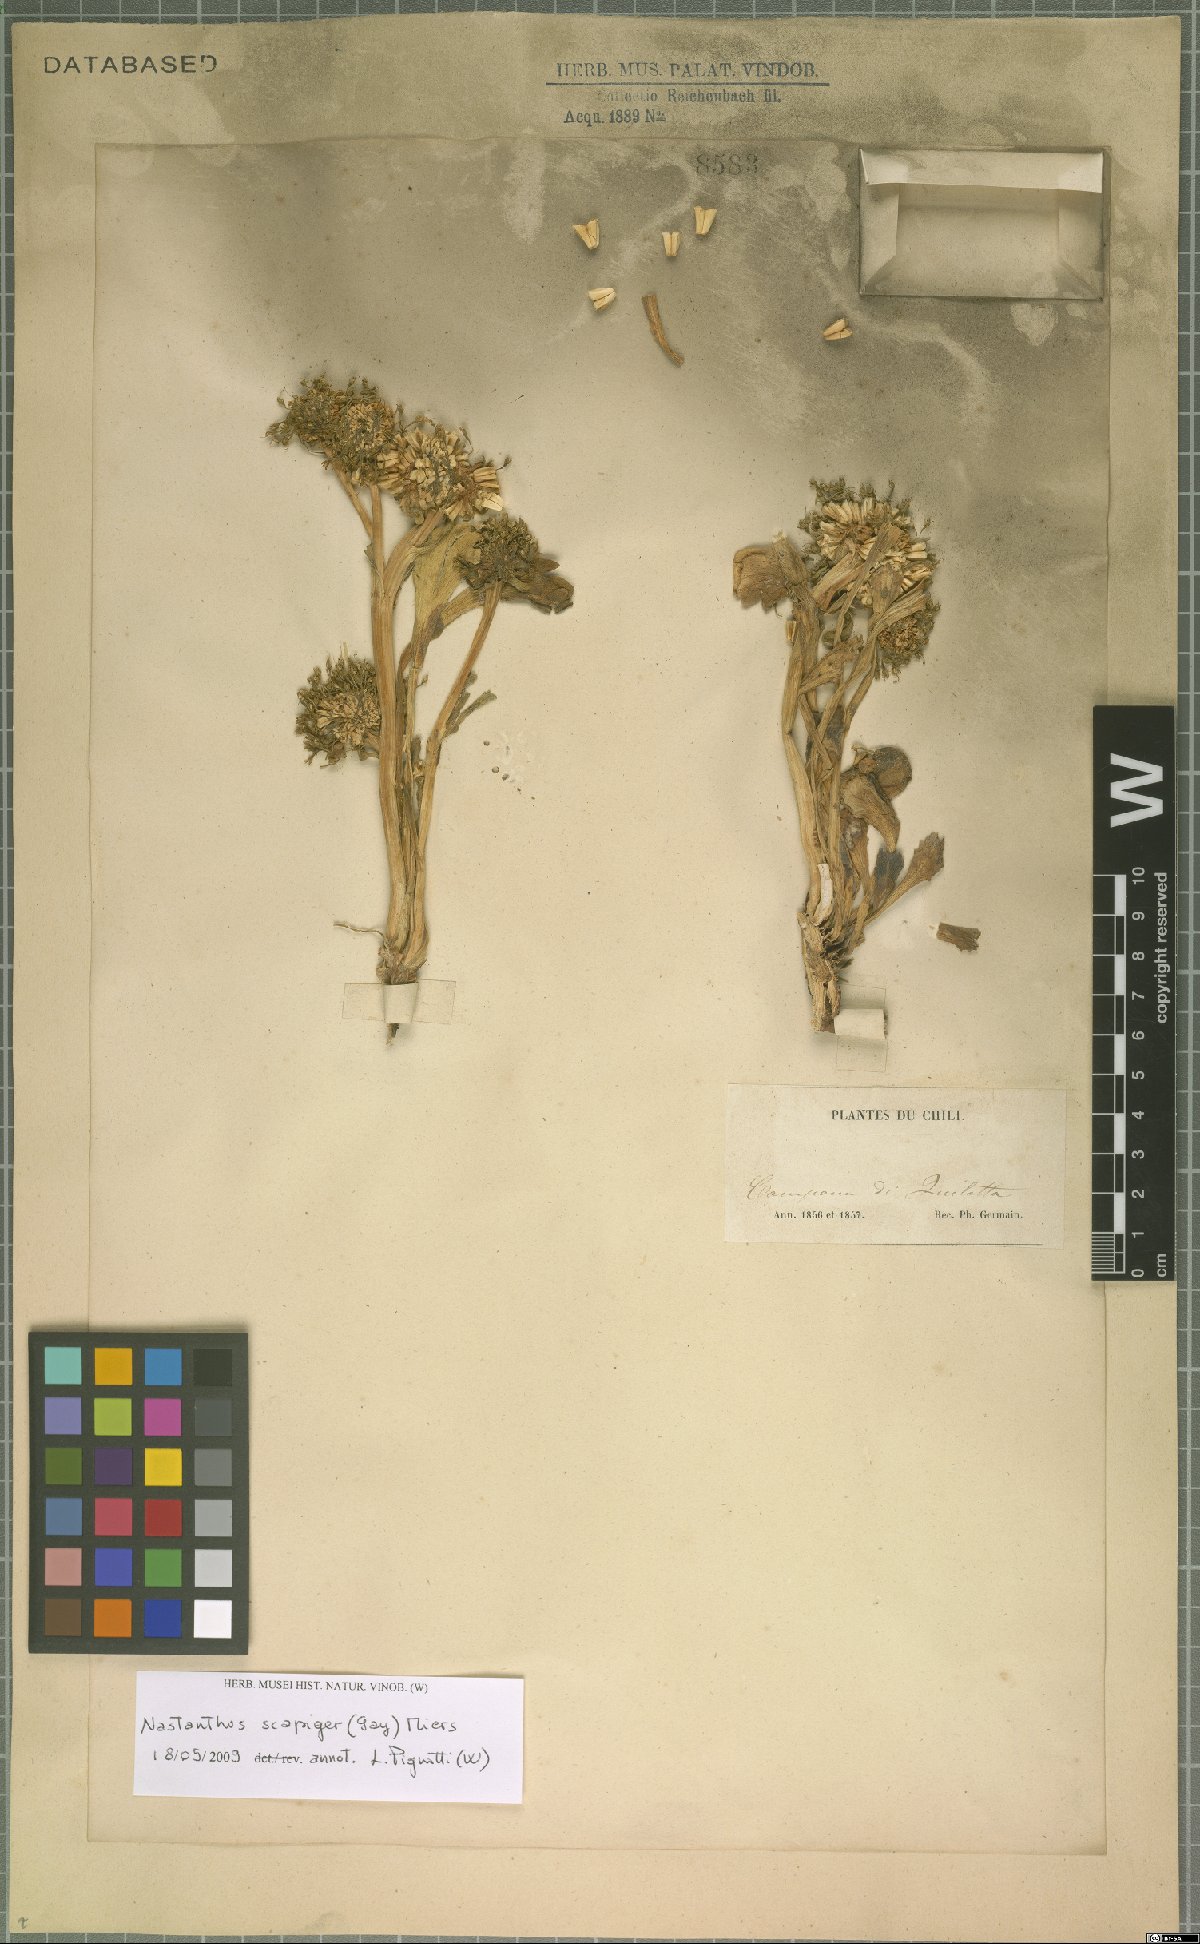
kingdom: Plantae
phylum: Tracheophyta
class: Magnoliopsida
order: Asterales
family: Calyceraceae
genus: Gamocarpha
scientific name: Gamocarpha scapigera
